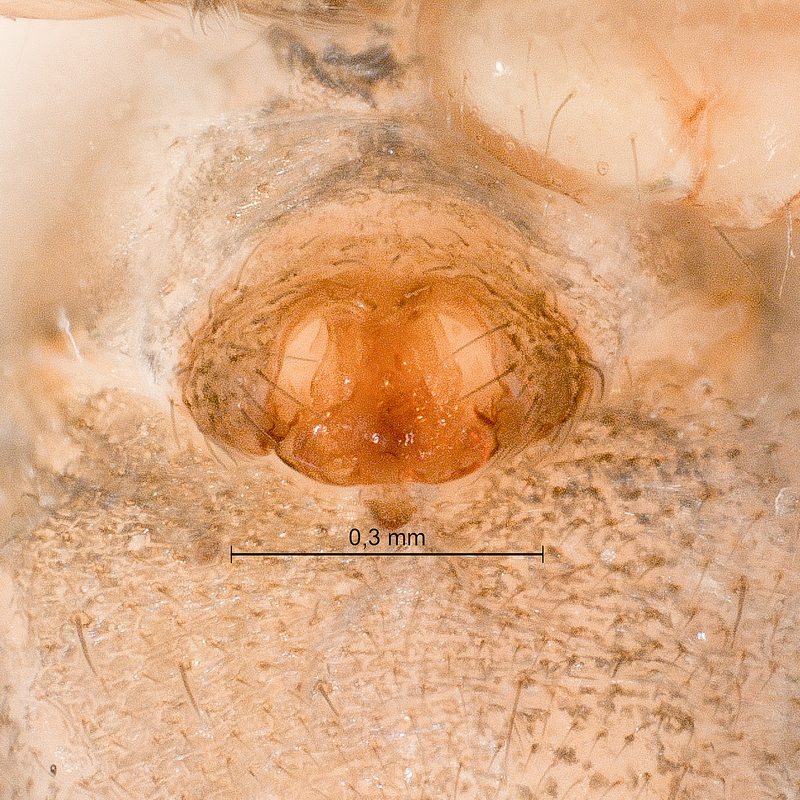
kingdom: Animalia
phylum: Arthropoda
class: Arachnida
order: Araneae
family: Linyphiidae
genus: Tenuiphantes
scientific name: Tenuiphantes cristatus
